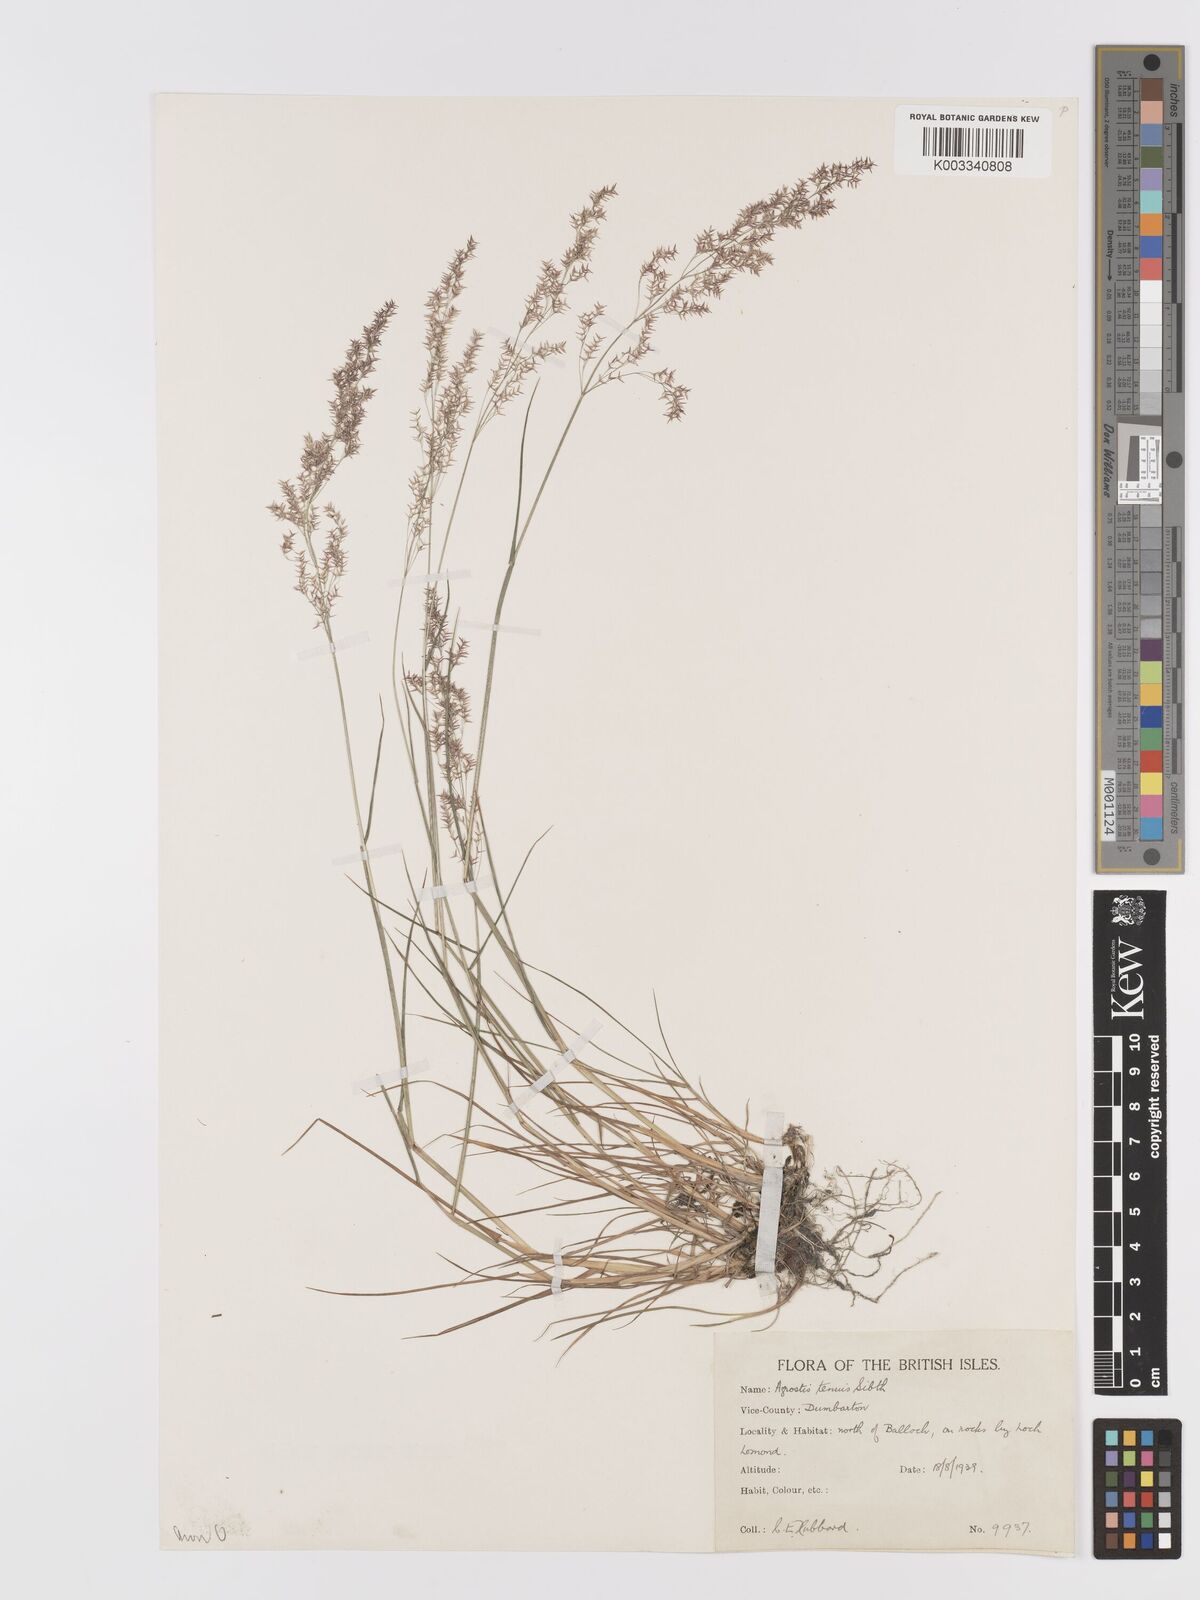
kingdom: Plantae
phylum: Tracheophyta
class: Liliopsida
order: Poales
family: Poaceae
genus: Agrostis
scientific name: Agrostis capillaris
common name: Colonial bentgrass
